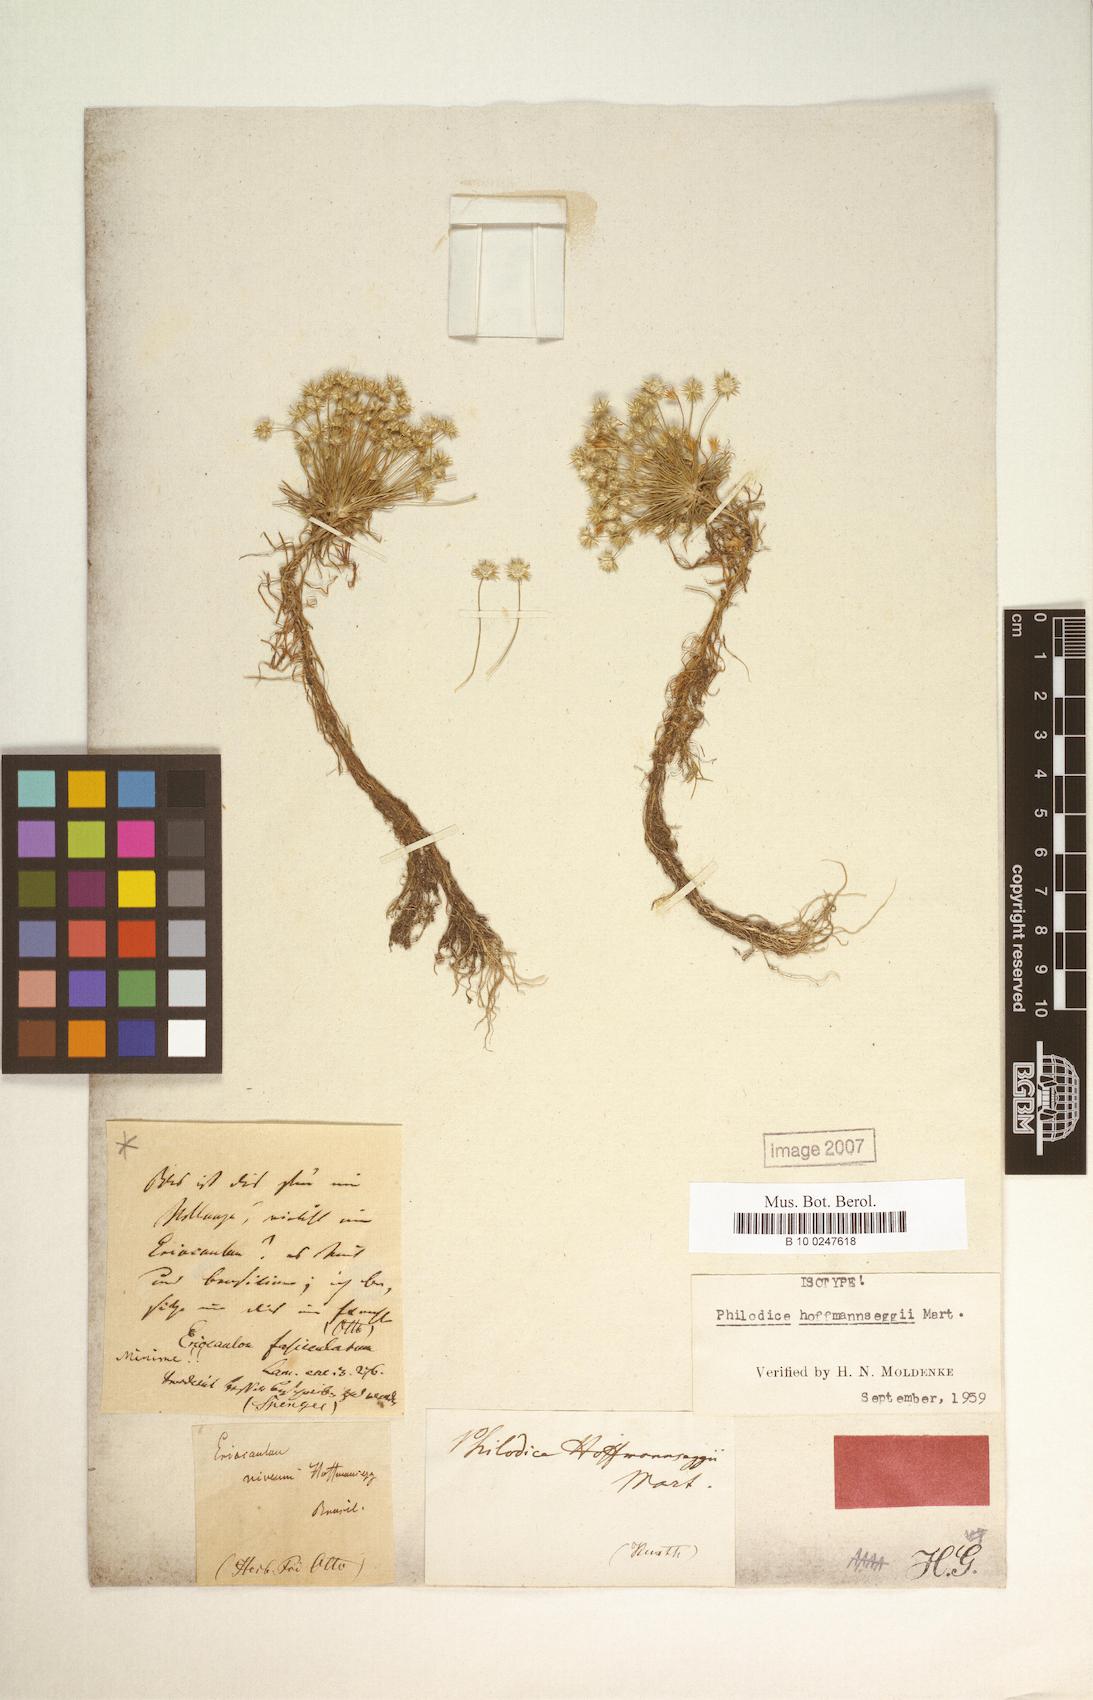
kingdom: Plantae
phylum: Tracheophyta
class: Liliopsida
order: Poales
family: Eriocaulaceae
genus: Syngonanthus
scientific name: Syngonanthus cuyabensis
